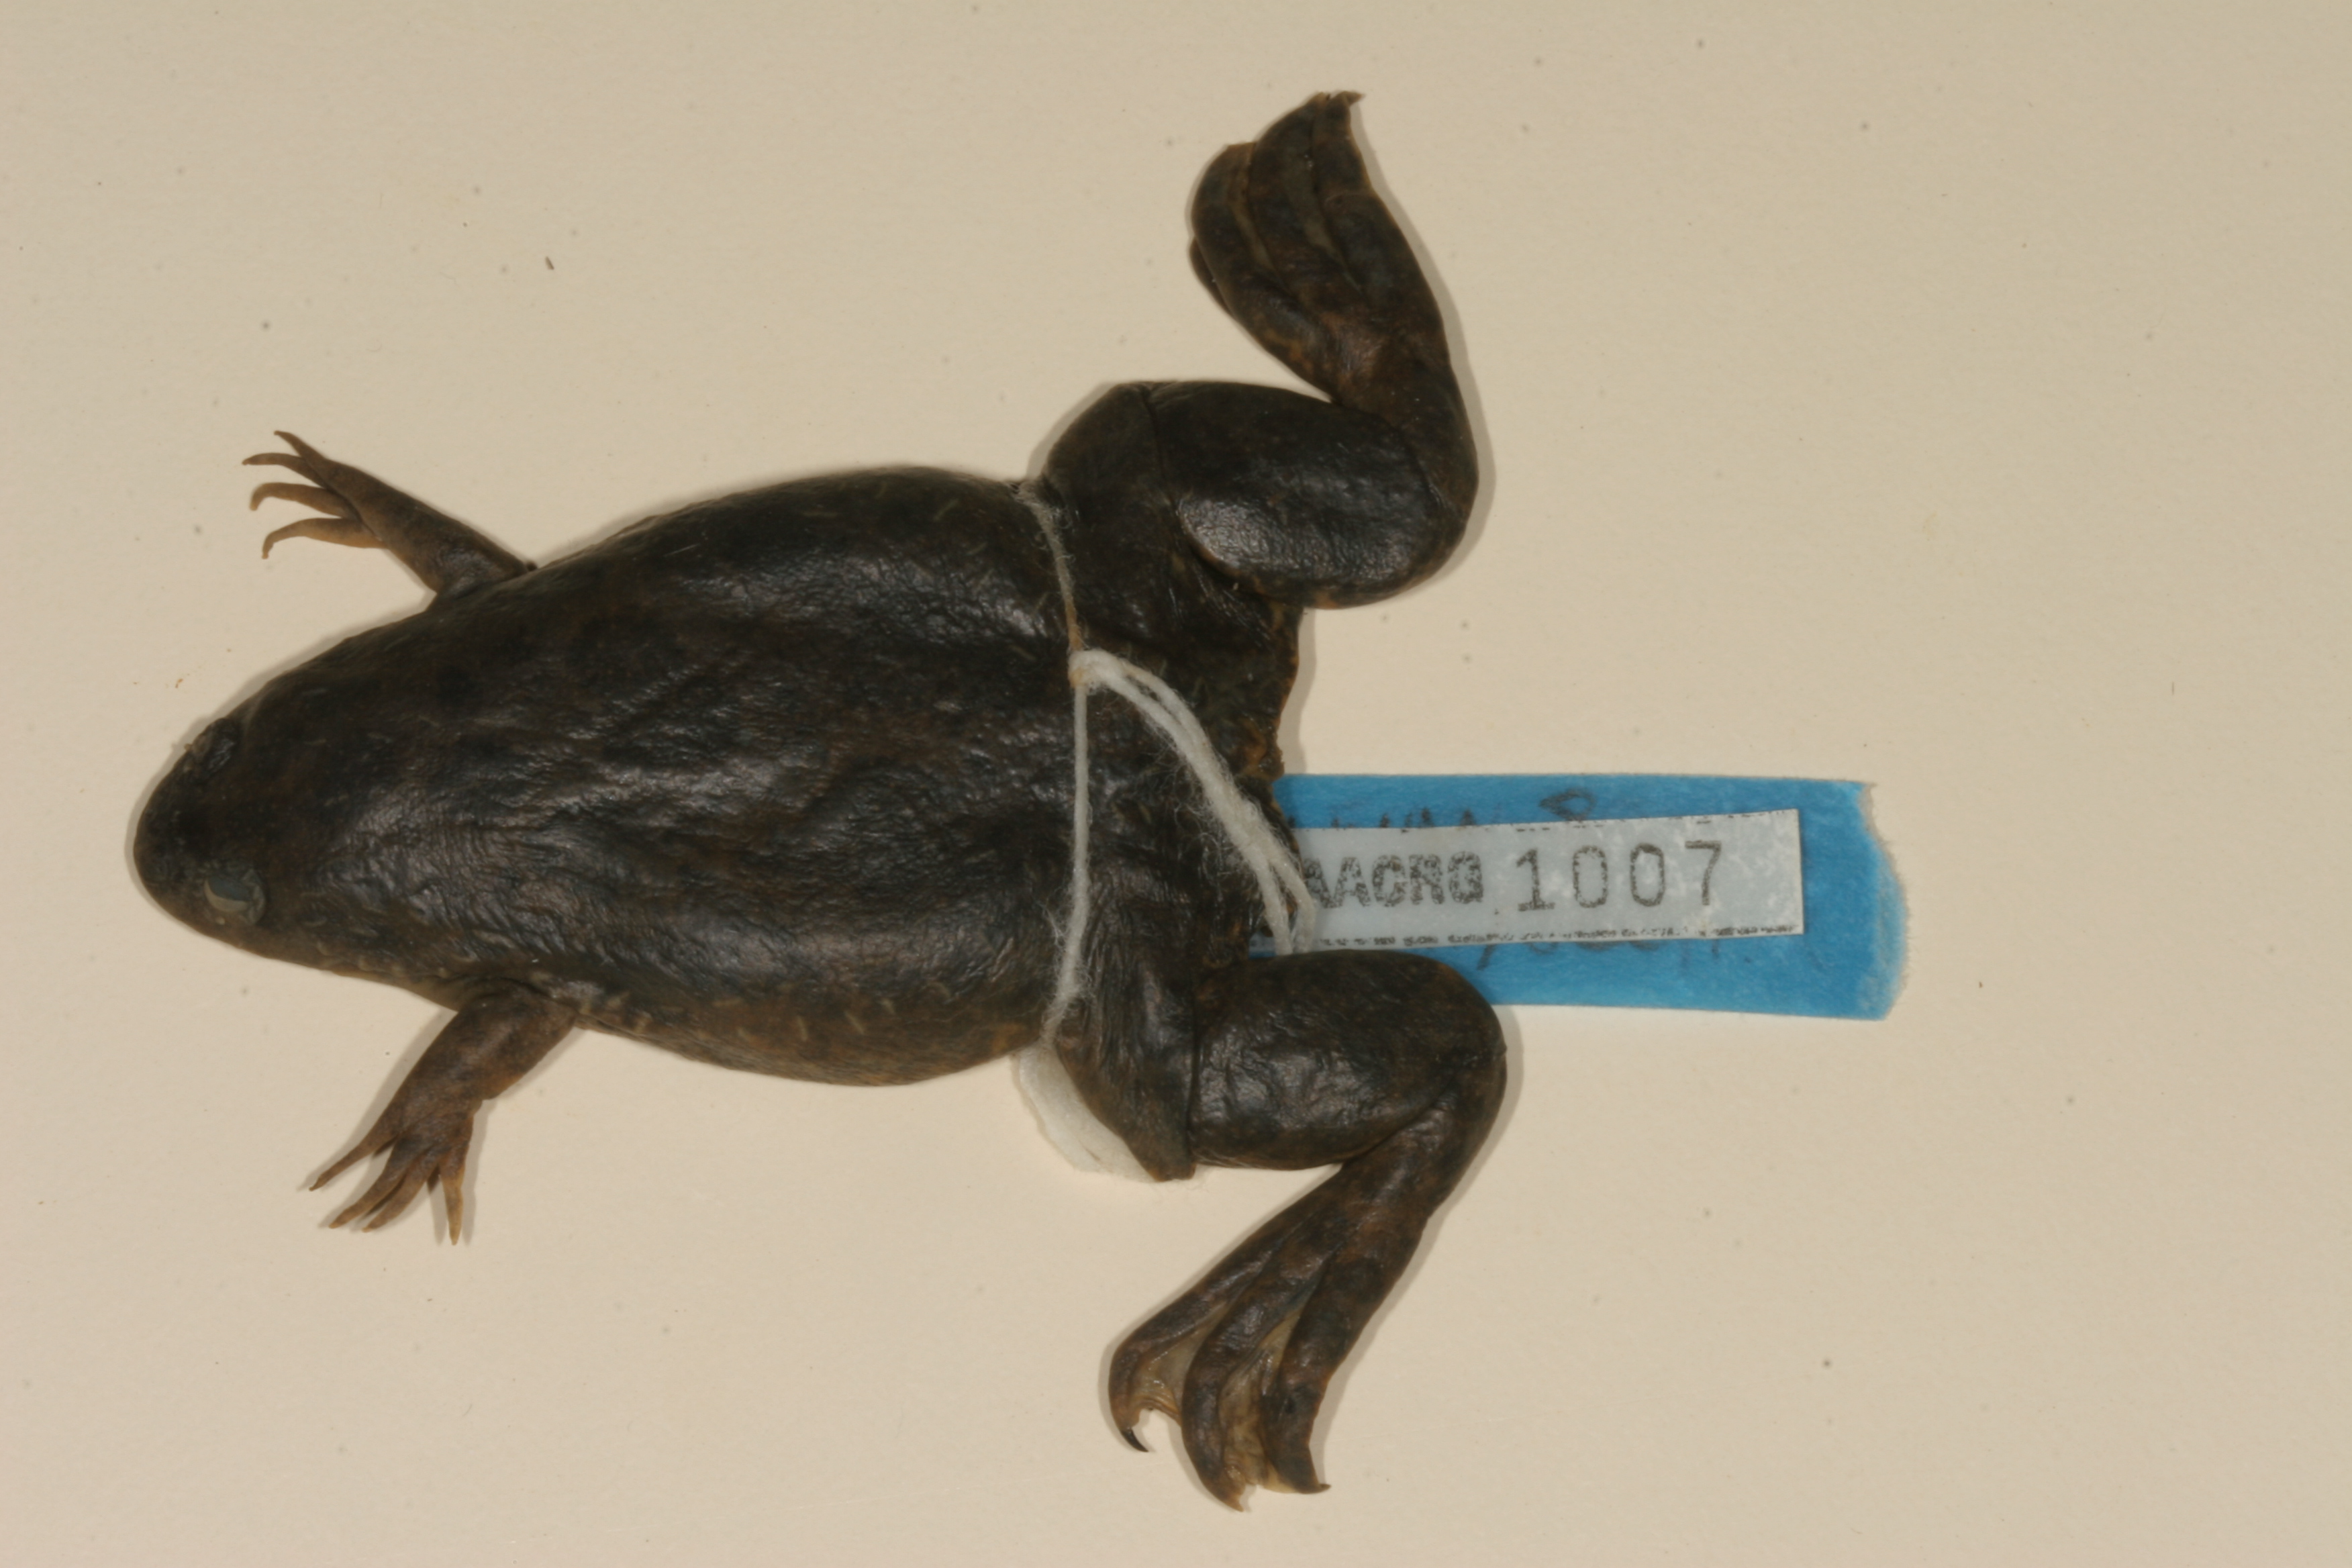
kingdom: Animalia
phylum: Chordata
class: Amphibia
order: Anura
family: Pipidae
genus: Xenopus
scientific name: Xenopus petersii
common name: Peters' clawed frog
